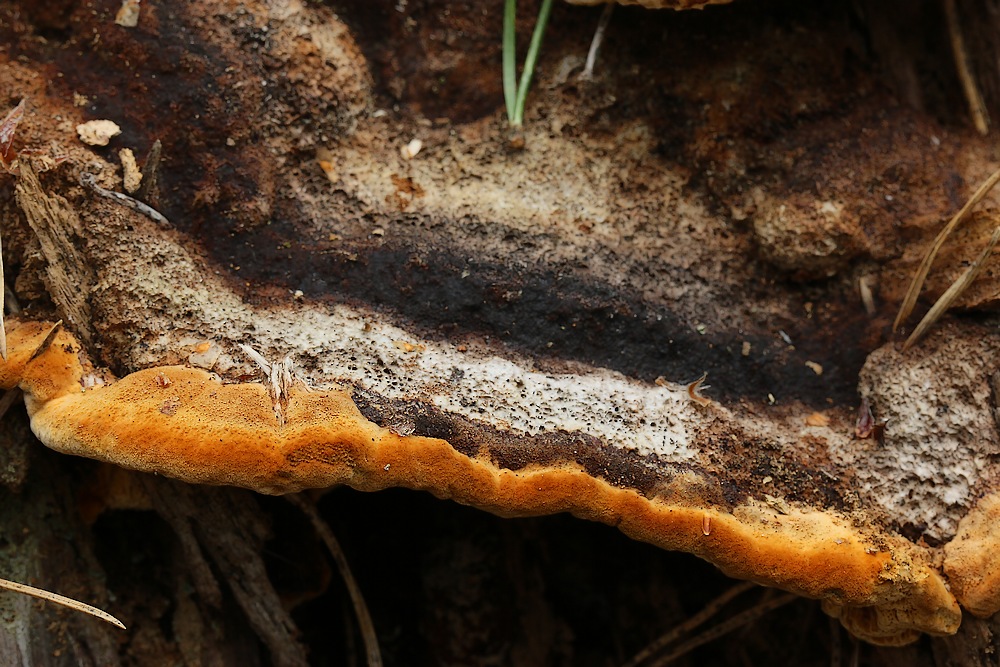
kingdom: Fungi
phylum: Basidiomycota
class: Agaricomycetes
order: Gloeophyllales
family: Gloeophyllaceae
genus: Gloeophyllum
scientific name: Gloeophyllum odoratum
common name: duftende korkhat
